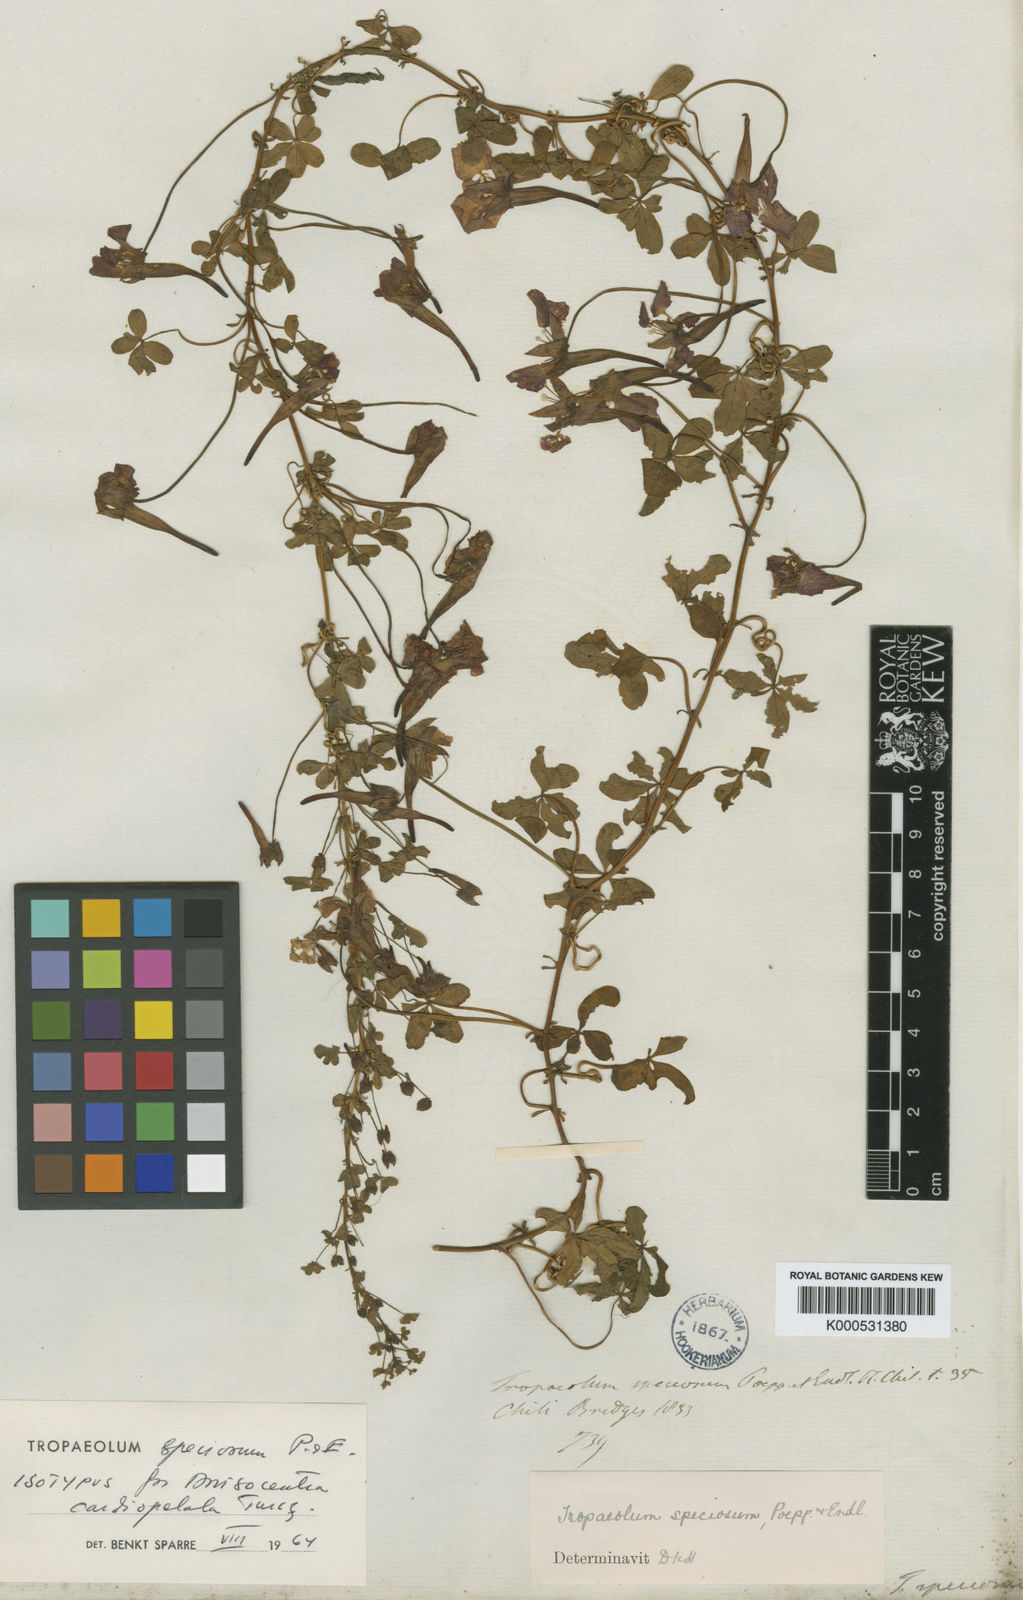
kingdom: Plantae
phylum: Tracheophyta
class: Magnoliopsida
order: Brassicales
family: Tropaeolaceae
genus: Tropaeolum
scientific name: Tropaeolum speciosum
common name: Flame nasturtium
